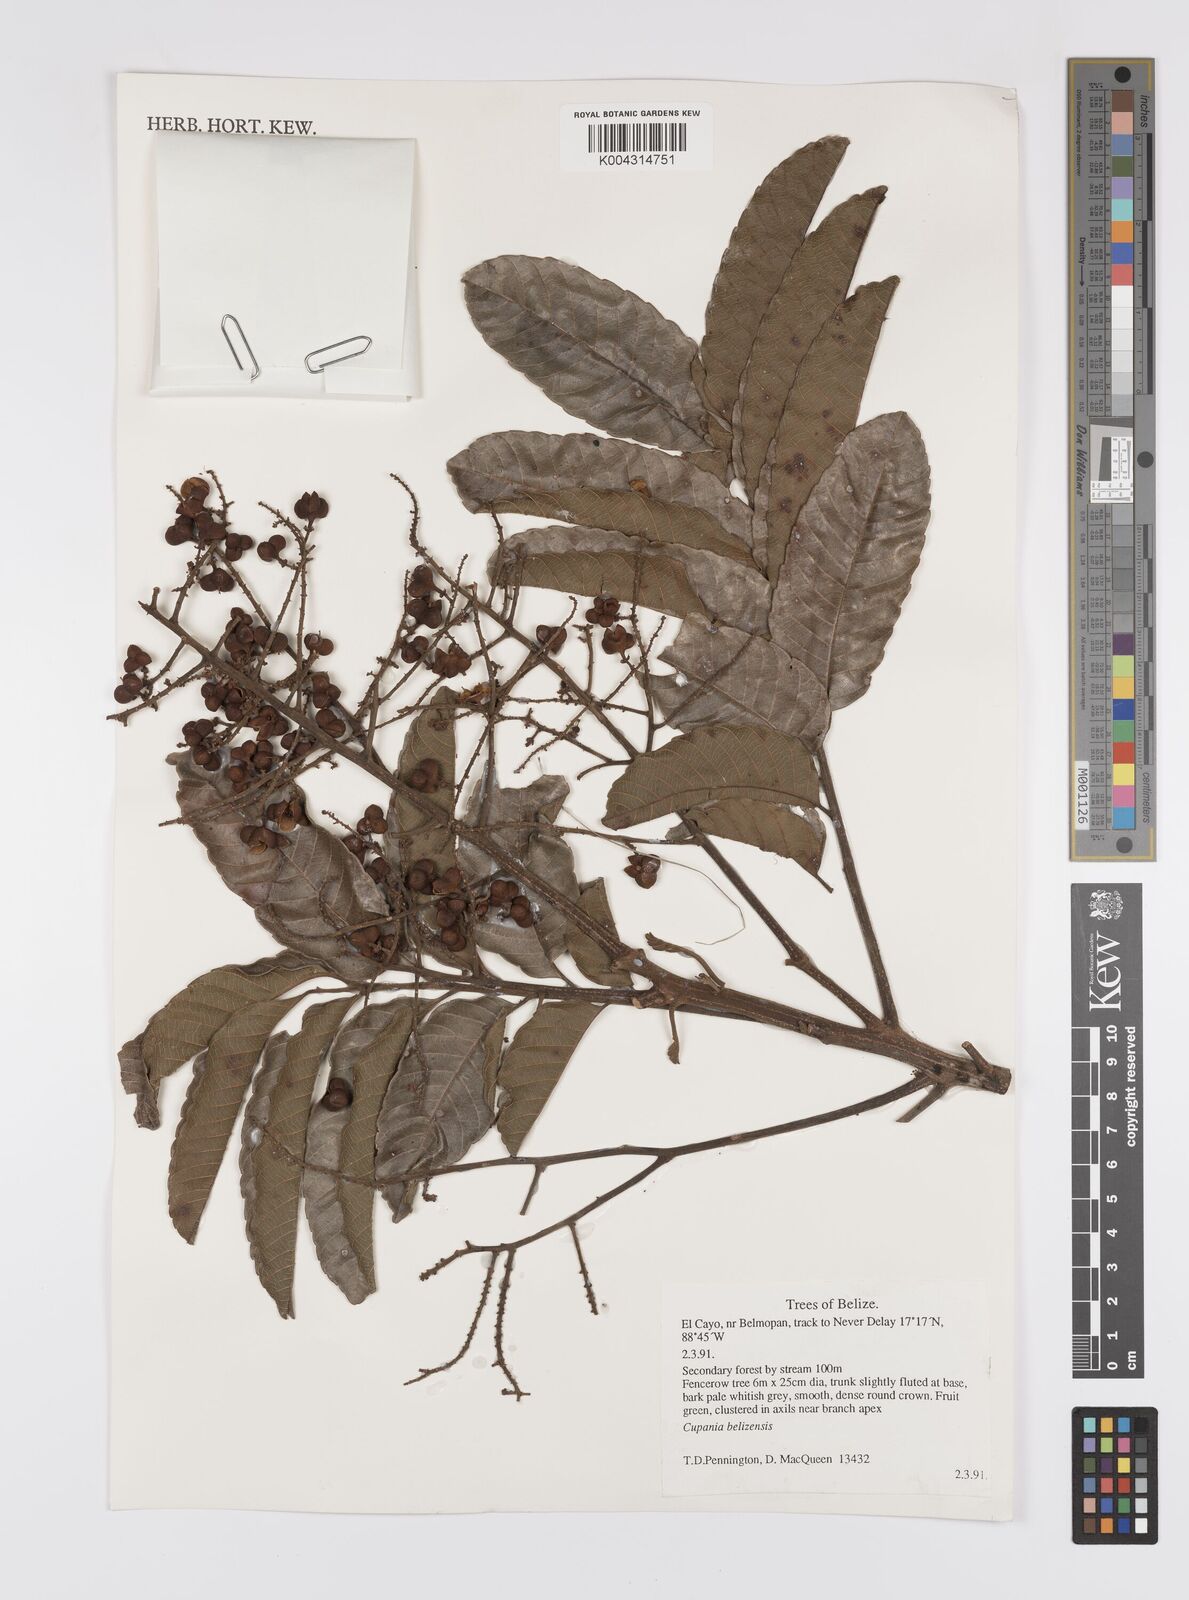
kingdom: Plantae
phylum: Tracheophyta
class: Magnoliopsida
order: Sapindales
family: Sapindaceae
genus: Cupania
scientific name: Cupania belizensis
